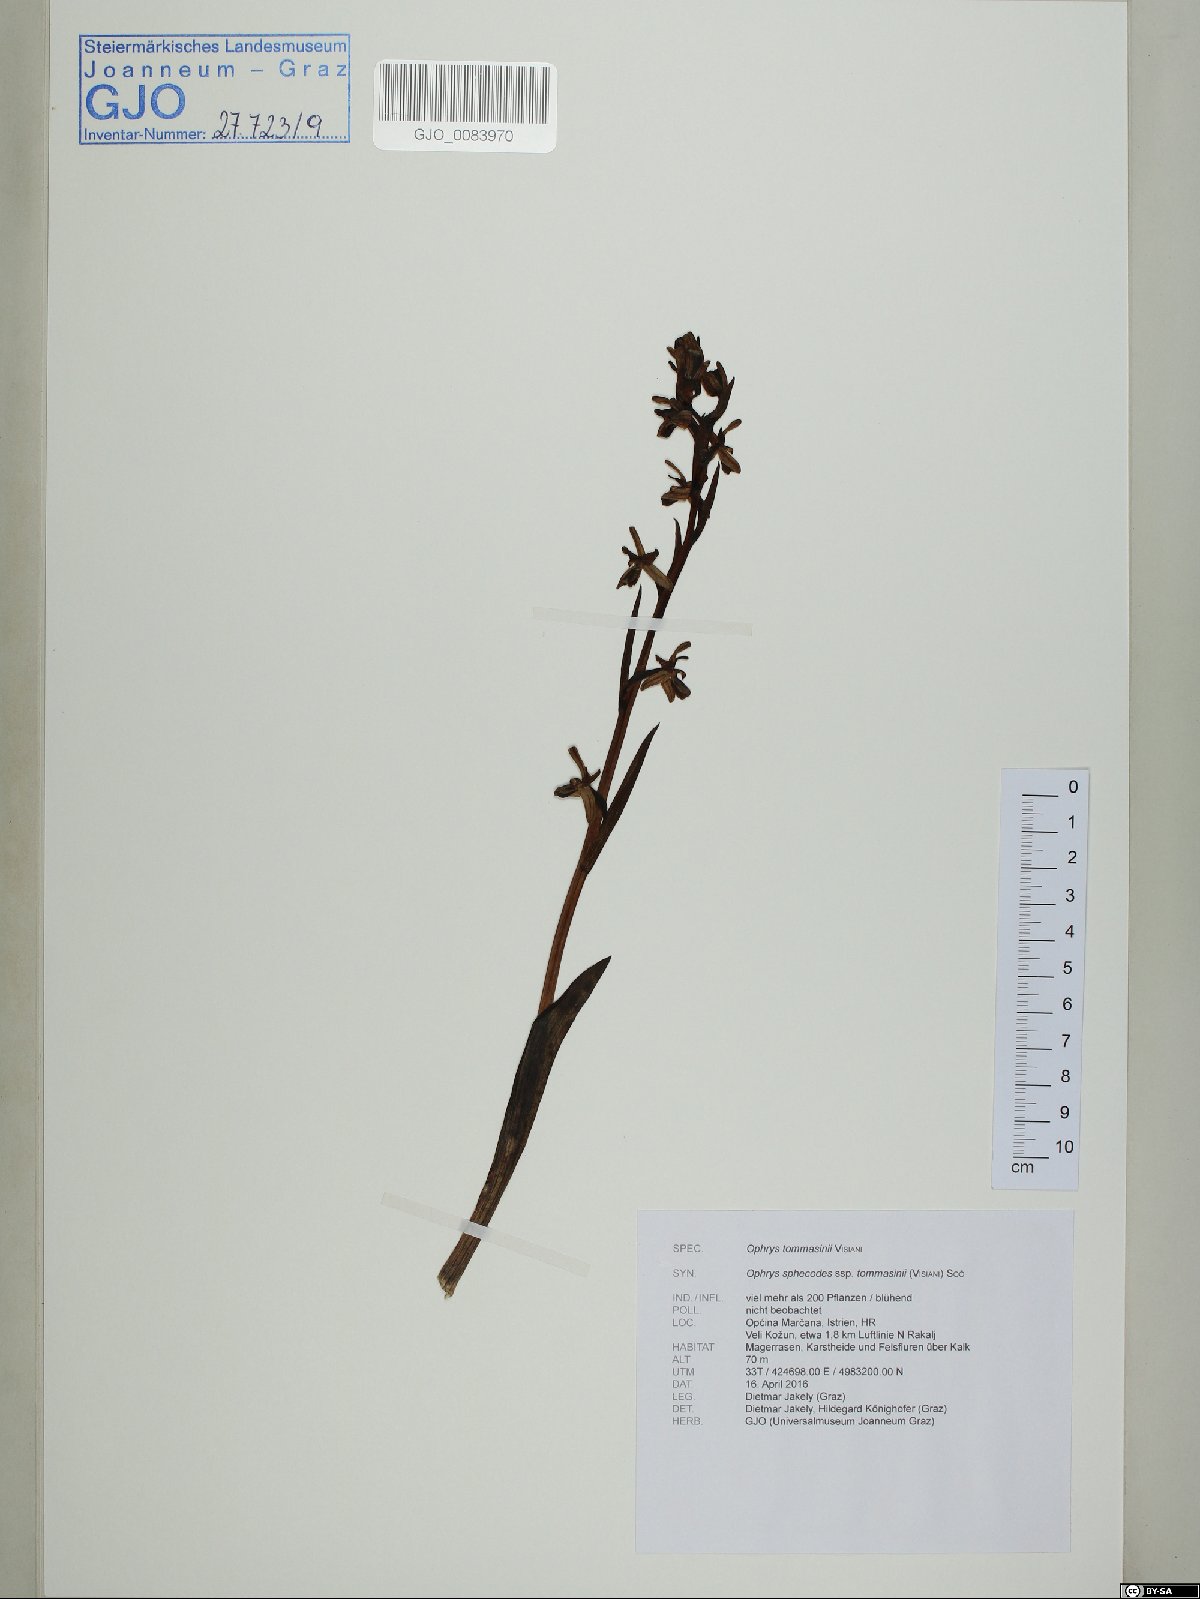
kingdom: Plantae
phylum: Tracheophyta
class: Liliopsida
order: Asparagales
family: Orchidaceae
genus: Ophrys
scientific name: Ophrys sphegodes
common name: Early spider-orchid
